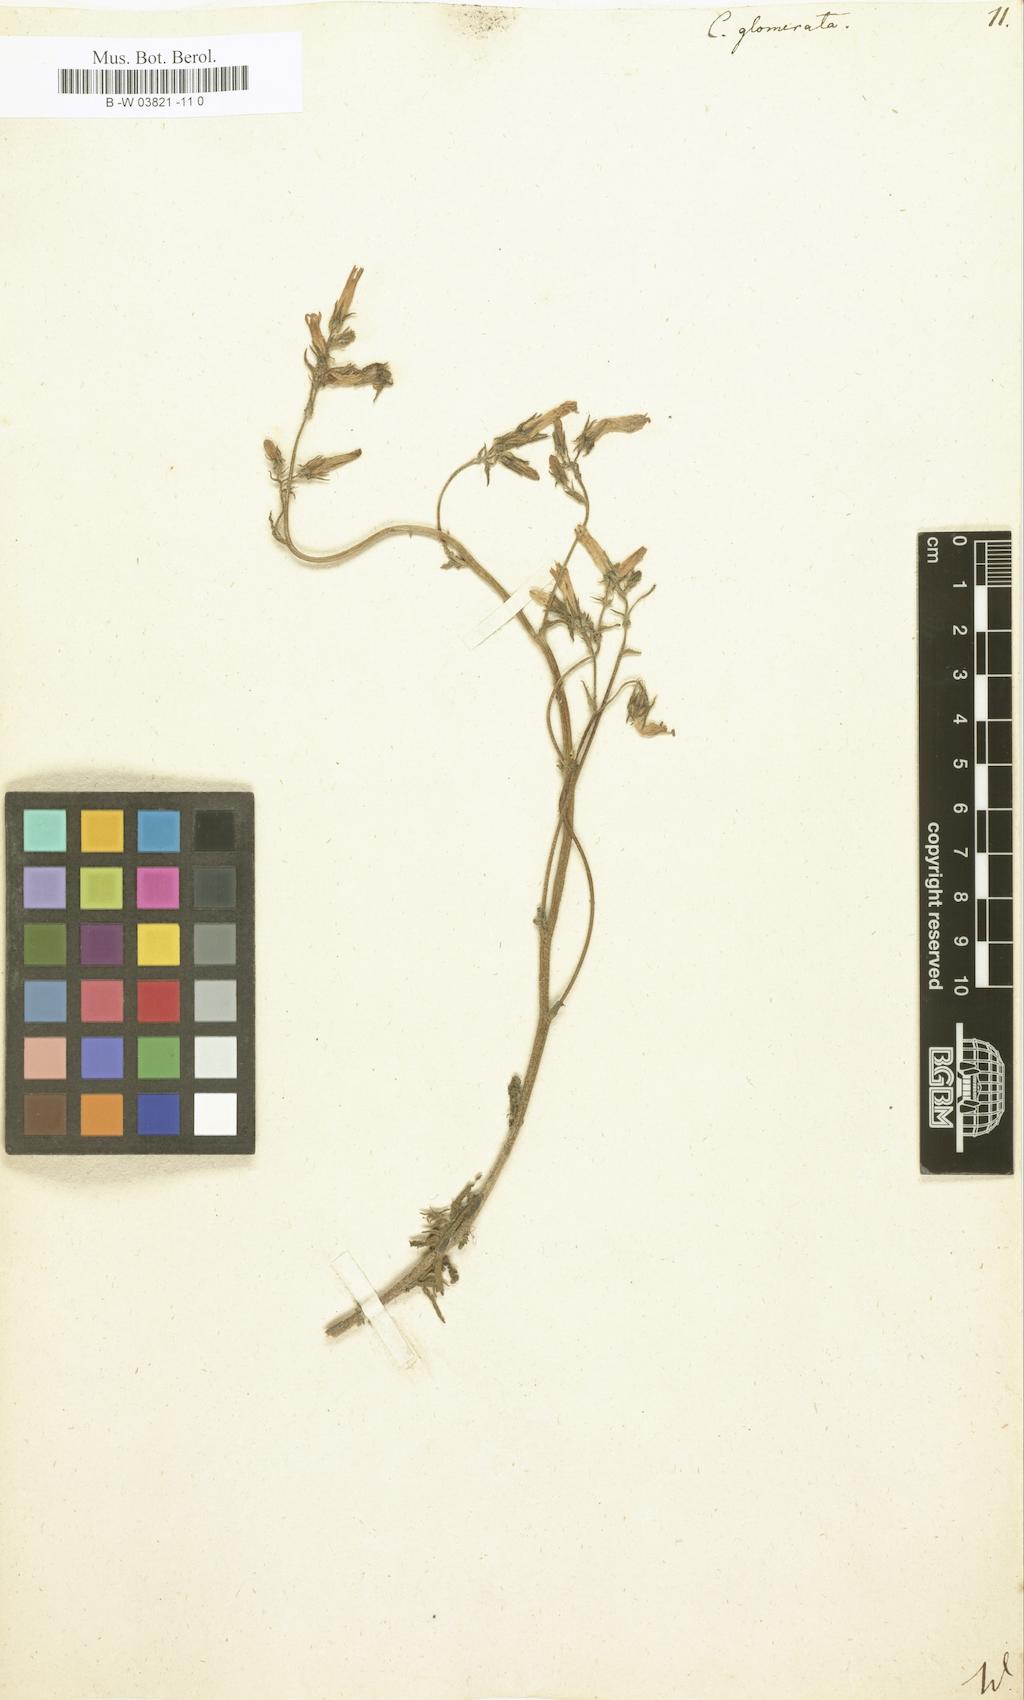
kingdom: Plantae
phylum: Tracheophyta
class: Magnoliopsida
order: Asterales
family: Campanulaceae
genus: Campanula
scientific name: Campanula glomerata
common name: Clustered bellflower
